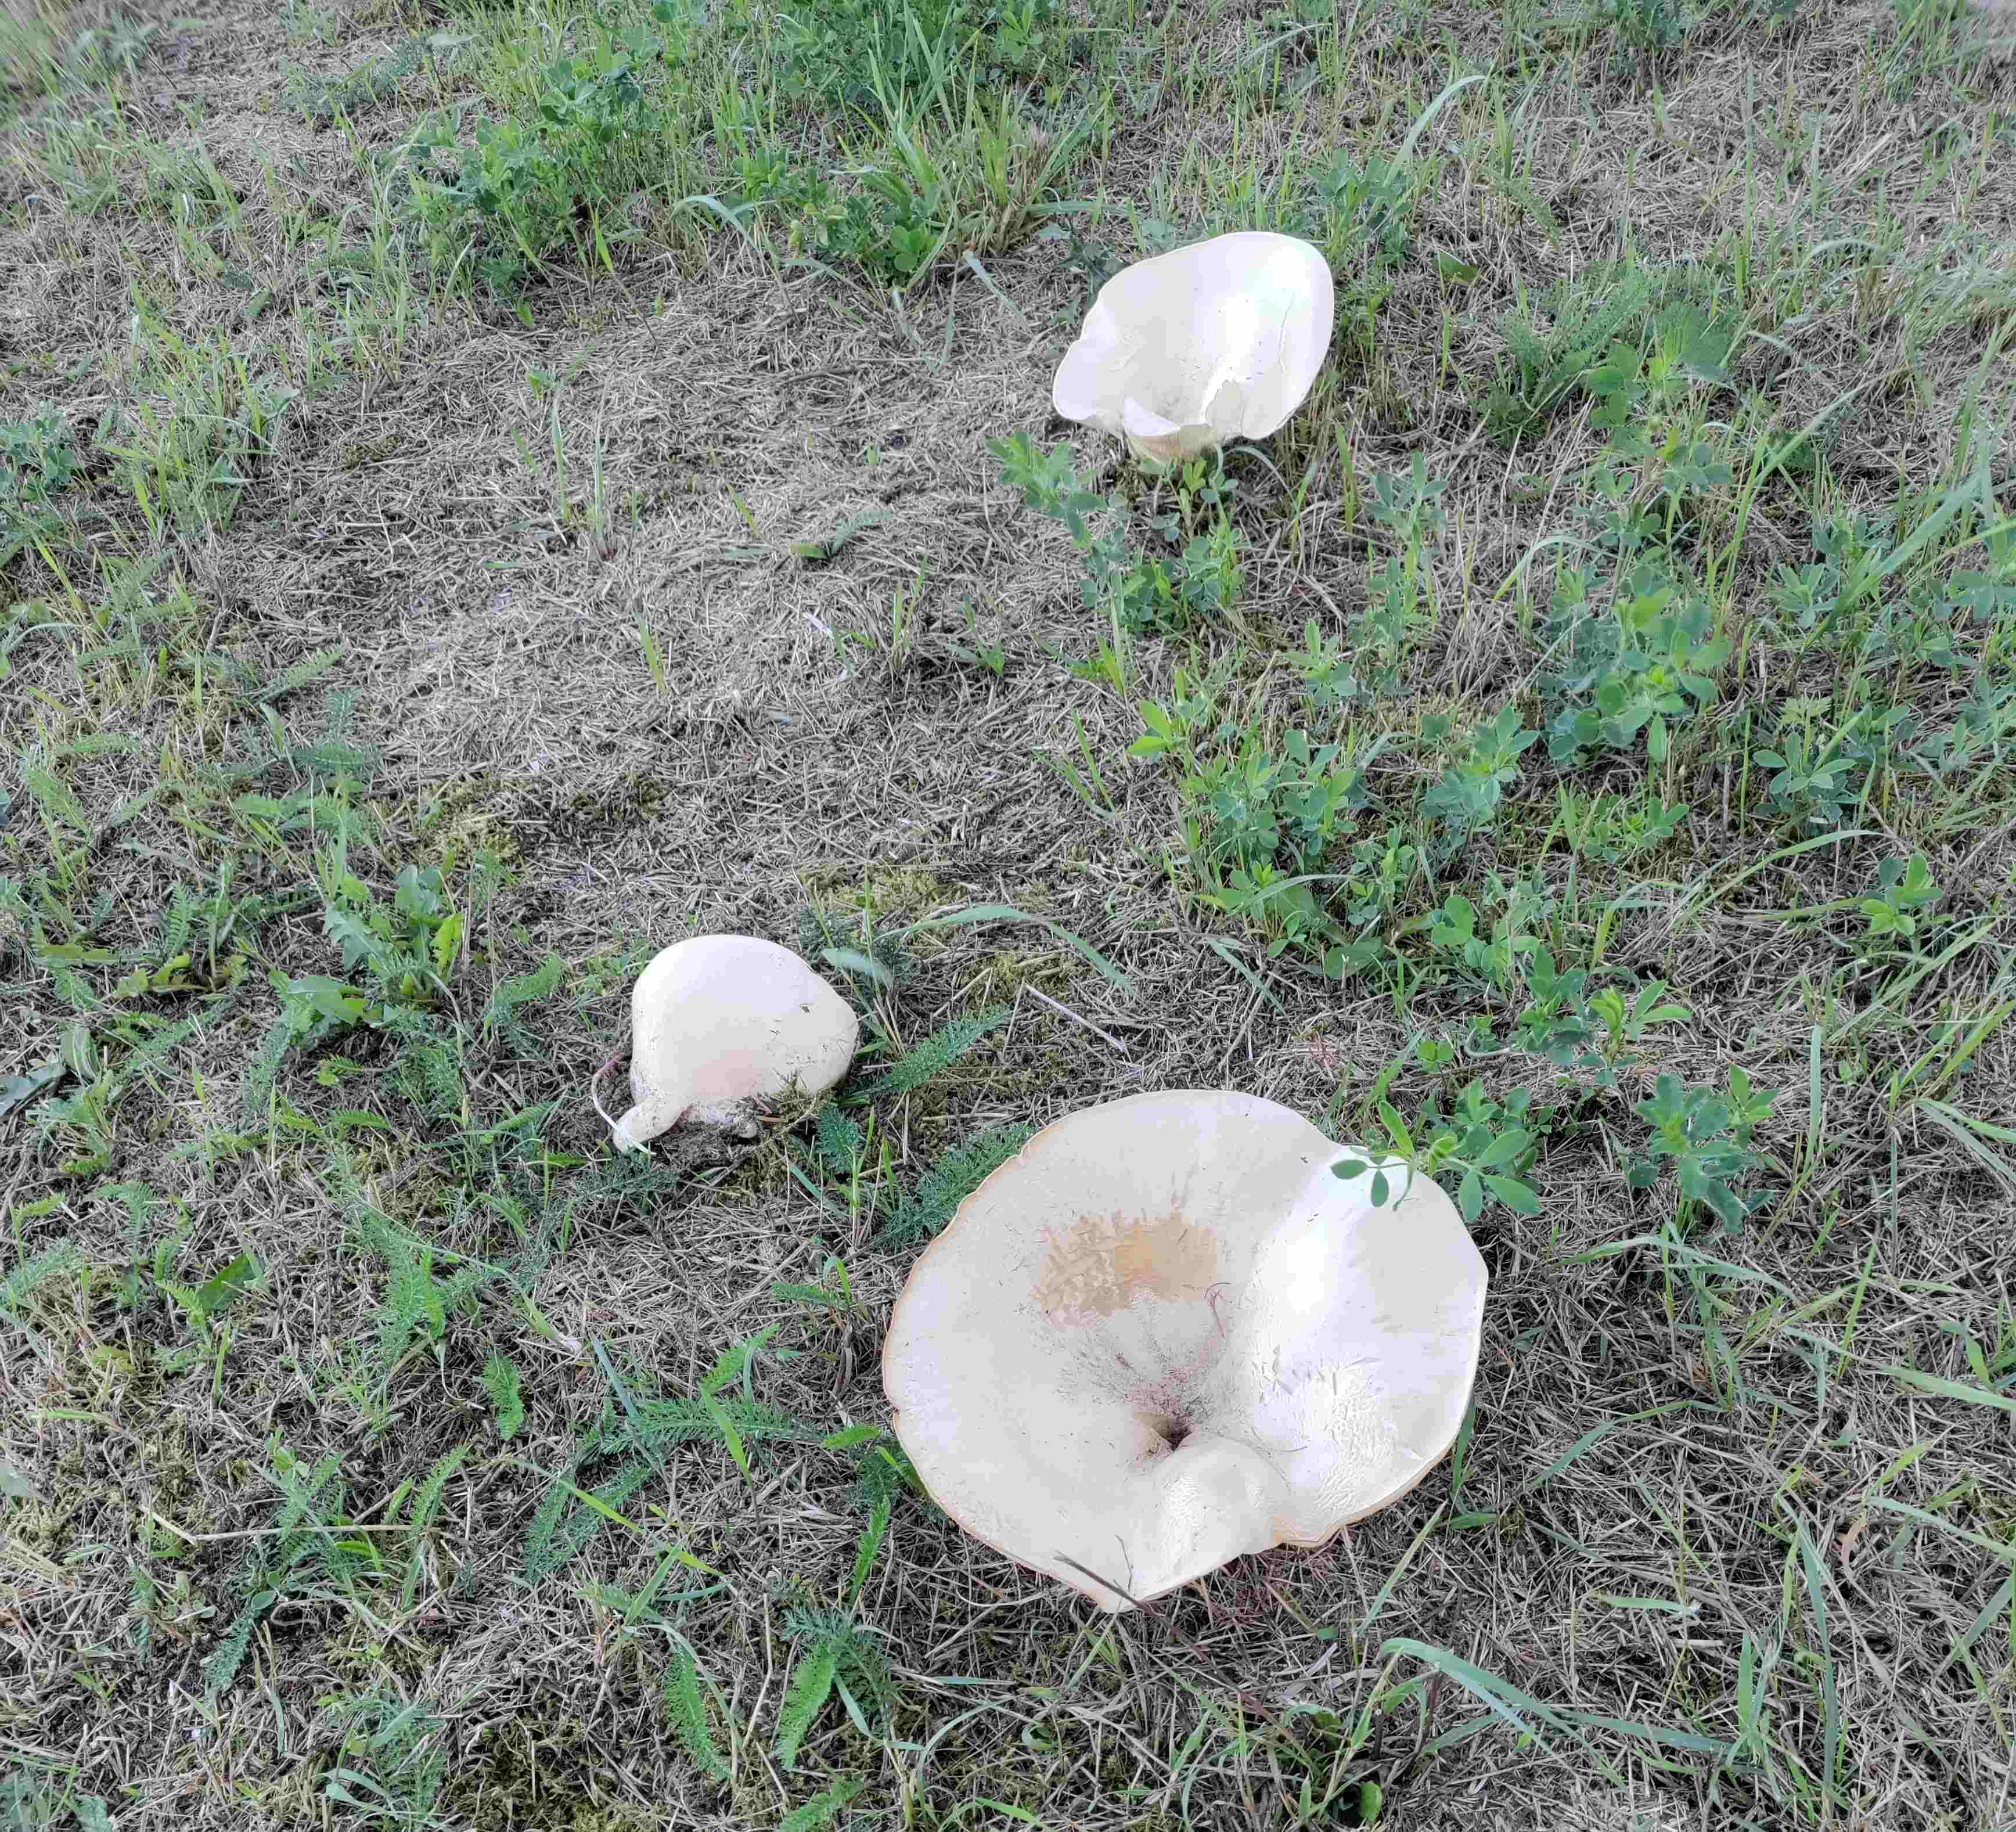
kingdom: Fungi
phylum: Basidiomycota
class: Agaricomycetes
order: Agaricales
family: Tricholomataceae
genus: Aspropaxillus
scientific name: Aspropaxillus giganteus
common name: kæmpe-tragtridderhat
